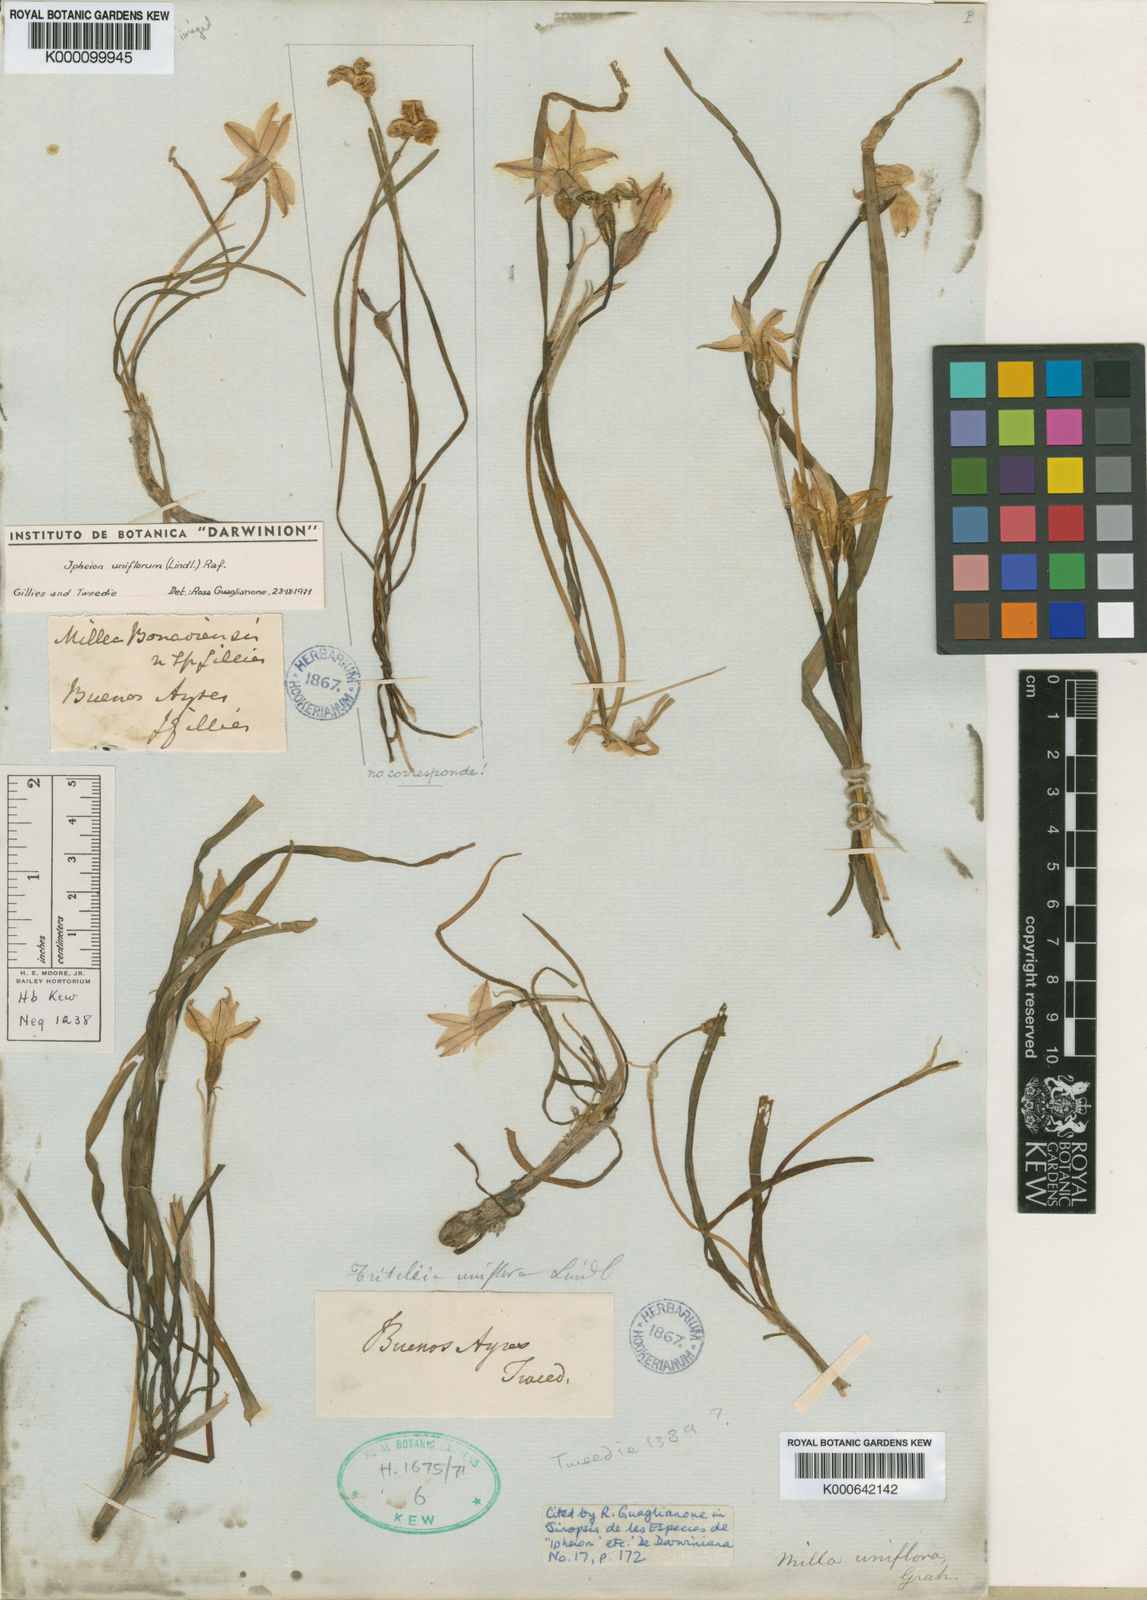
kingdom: Plantae
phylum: Tracheophyta
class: Liliopsida
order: Asparagales
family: Amaryllidaceae
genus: Ipheion
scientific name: Ipheion uniflorum
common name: Spring starflower
